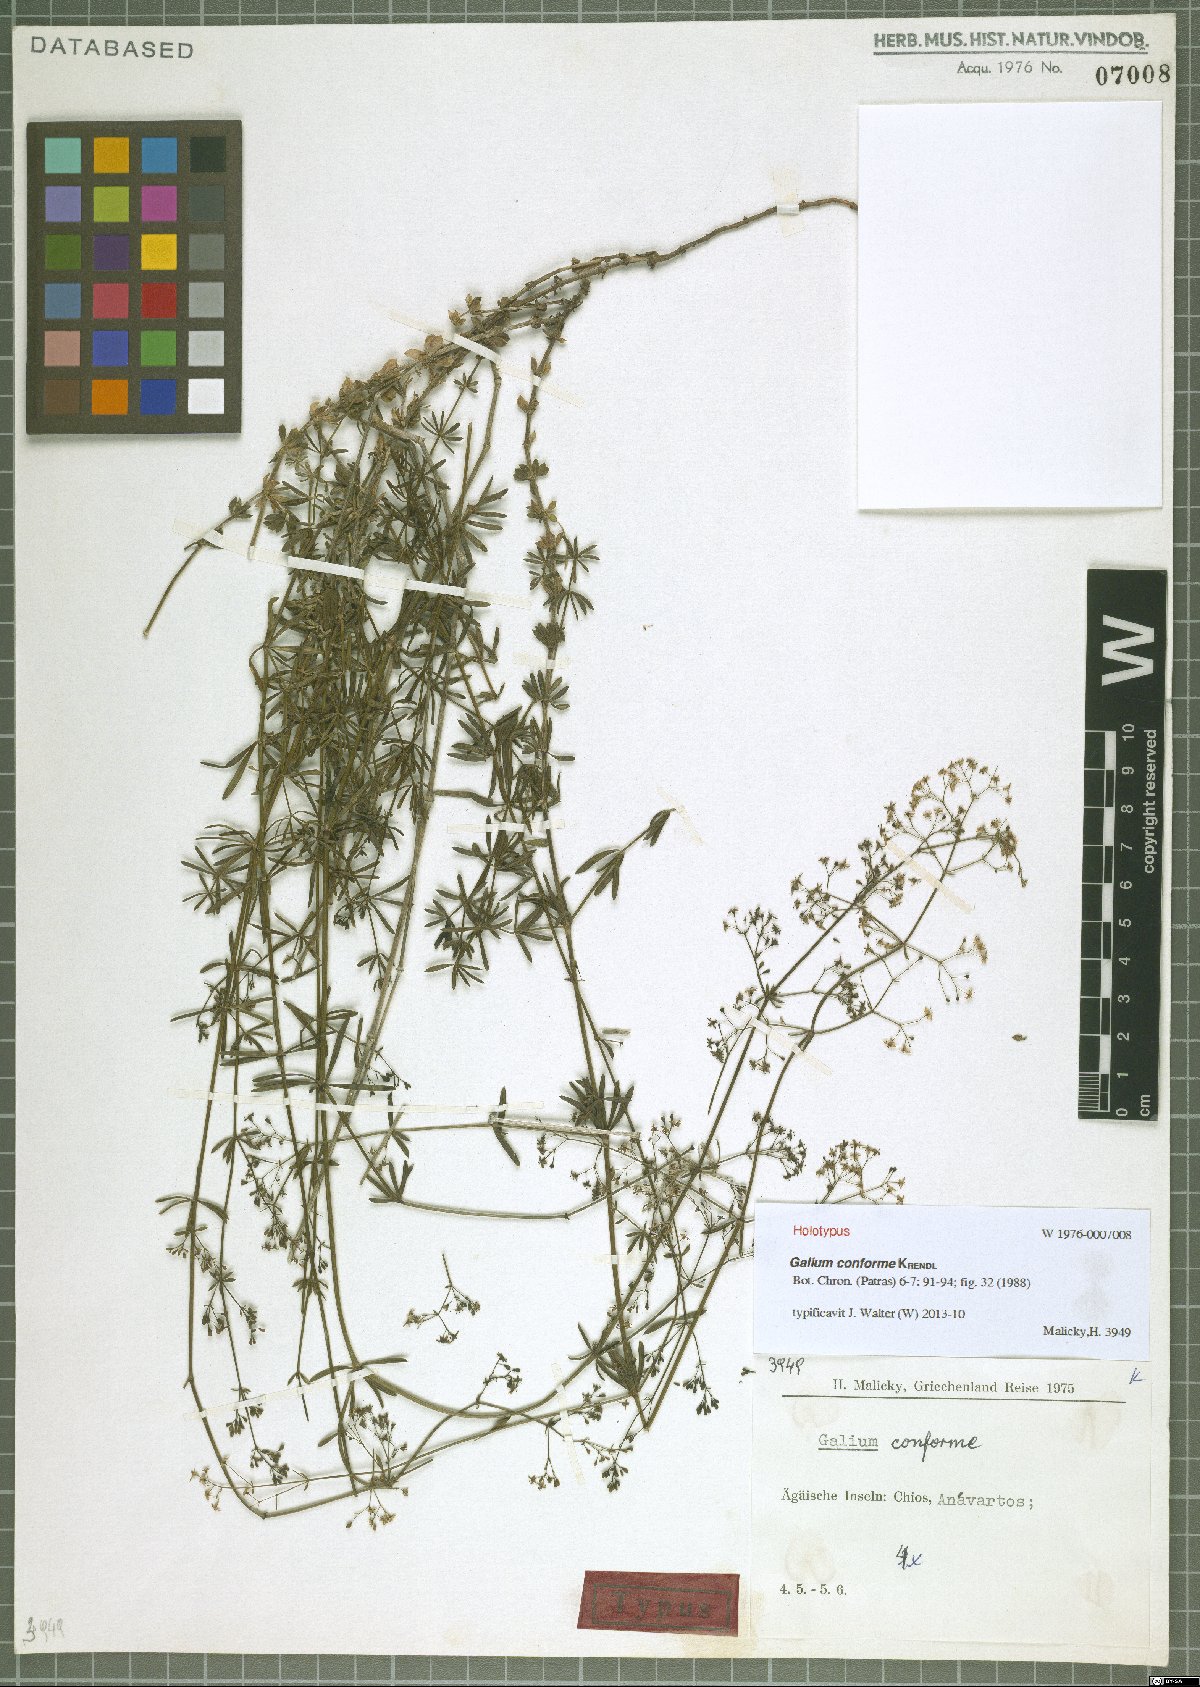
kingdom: Plantae
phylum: Tracheophyta
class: Magnoliopsida
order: Gentianales
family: Rubiaceae
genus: Galium
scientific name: Galium conforme
